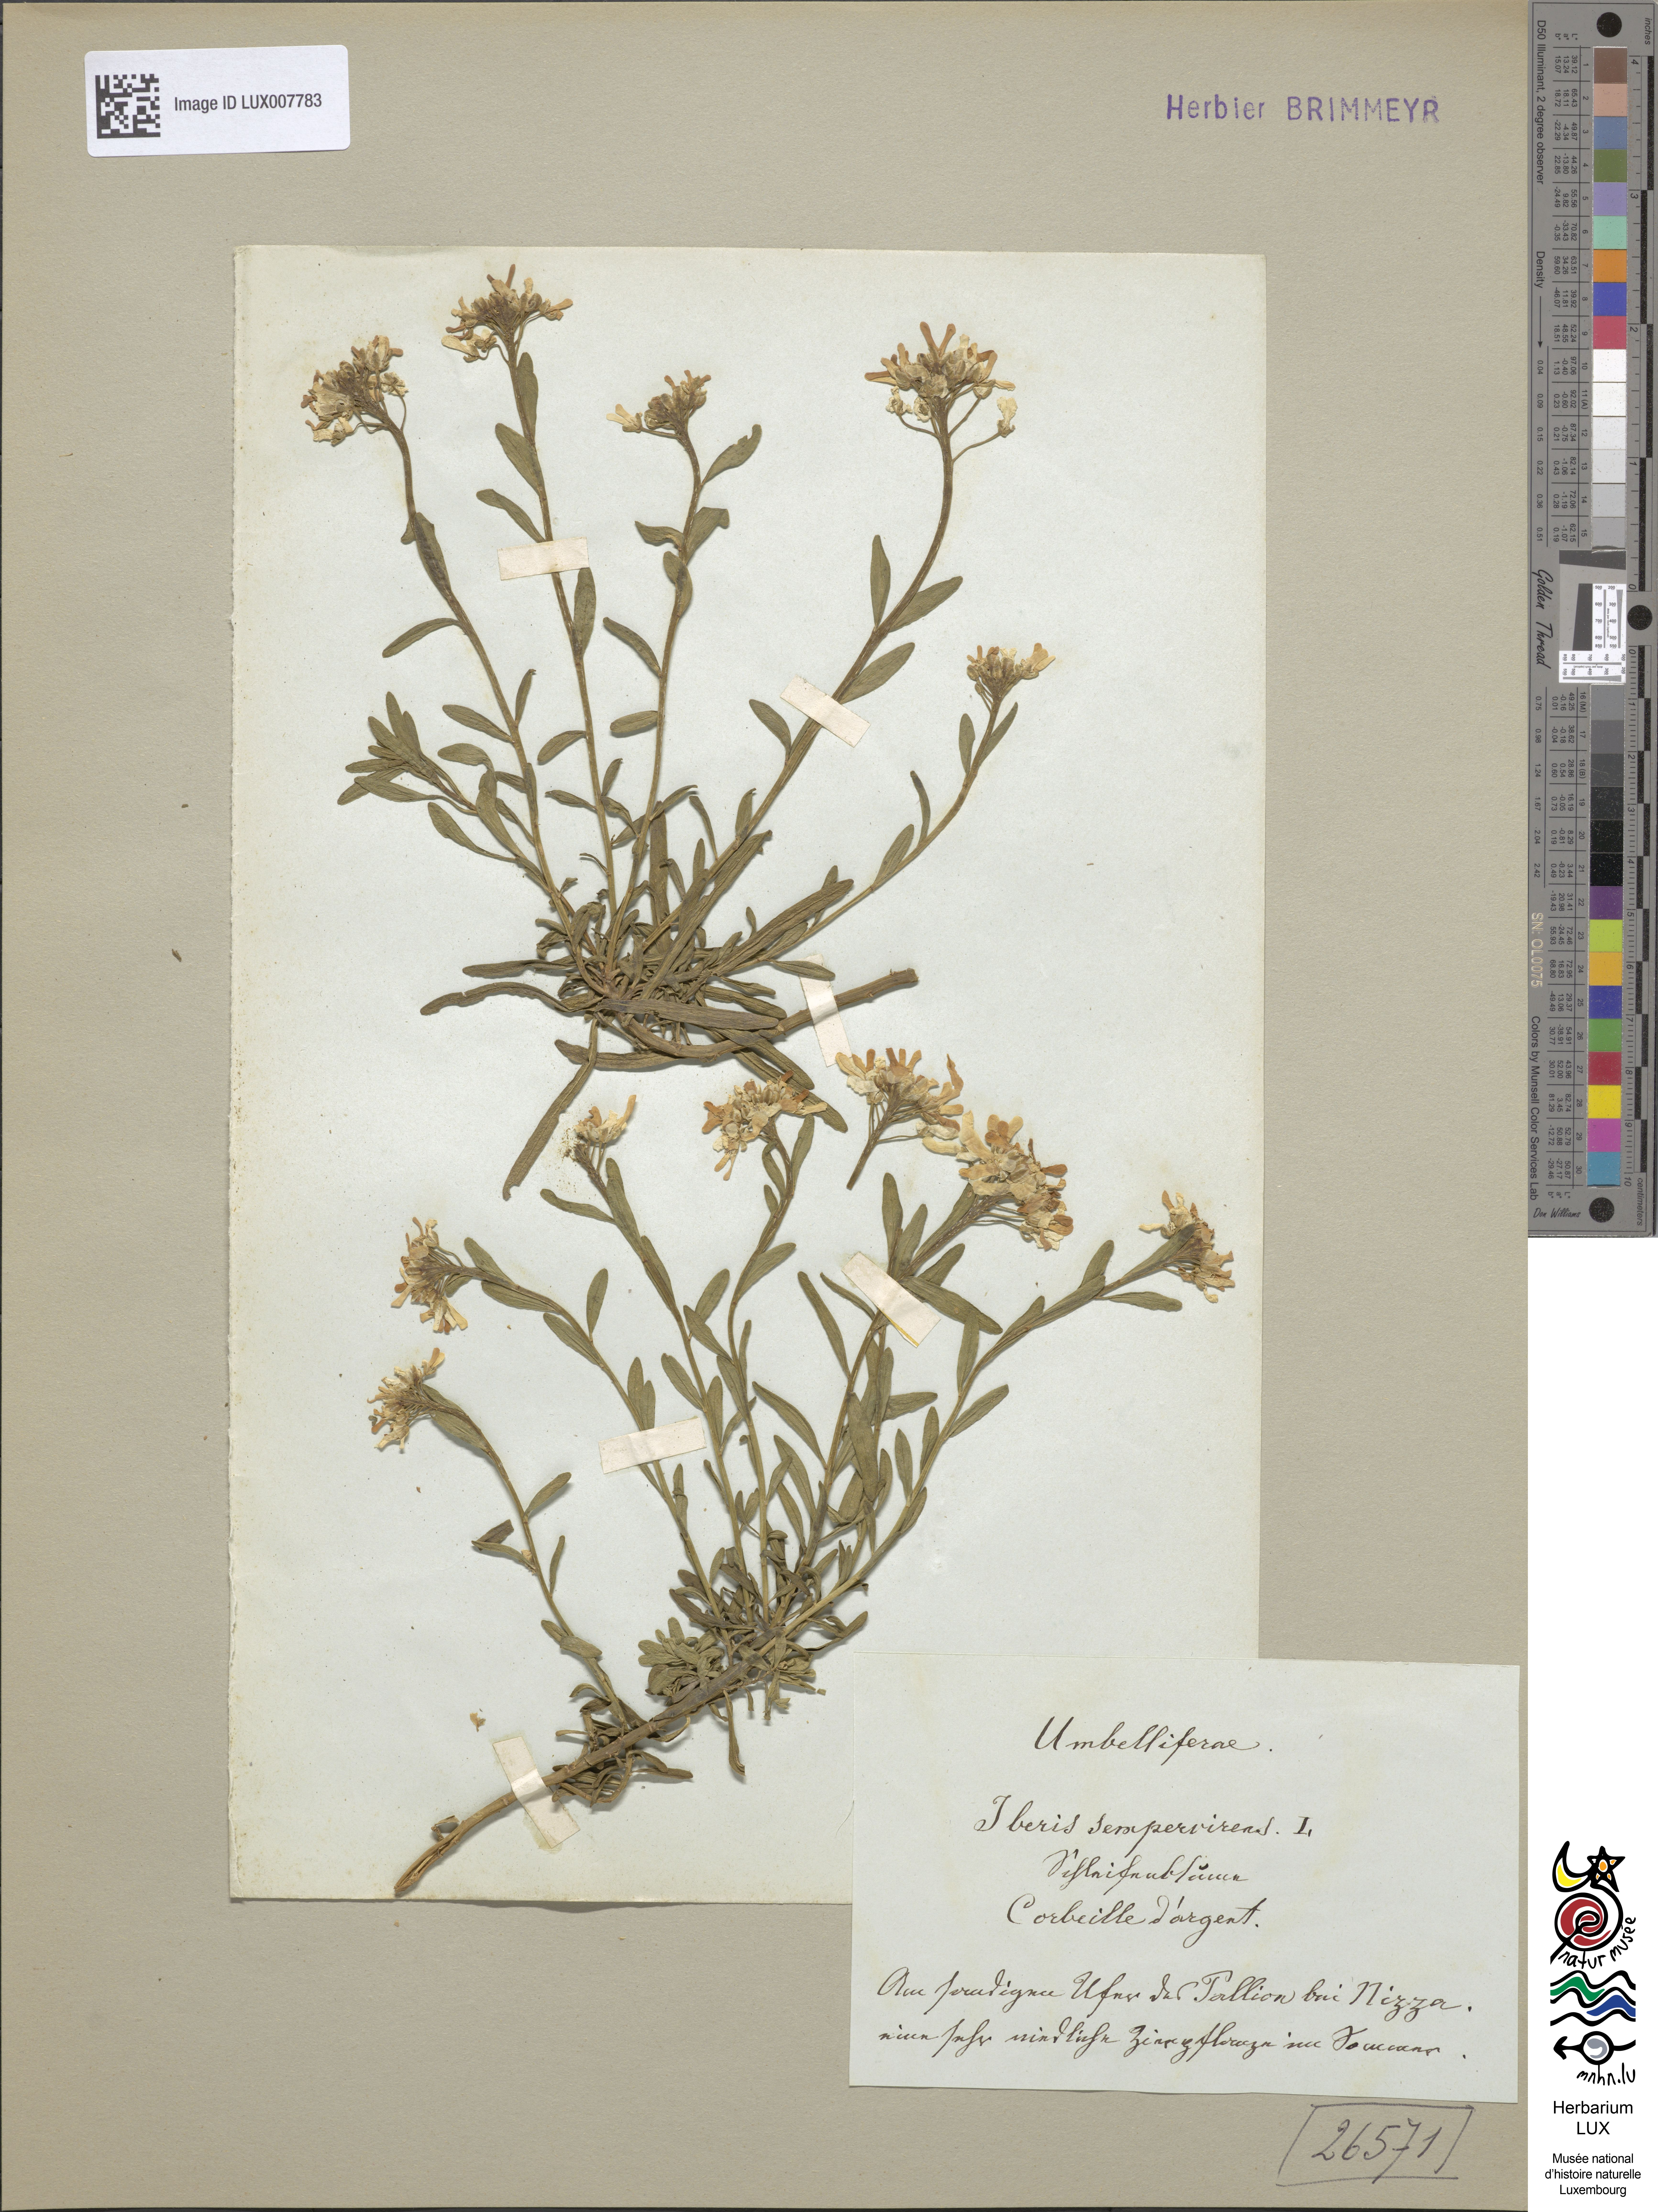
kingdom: Plantae
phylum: Tracheophyta
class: Magnoliopsida
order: Brassicales
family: Brassicaceae
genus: Iberis
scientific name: Iberis sempervirens
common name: Evergreen candytuft
